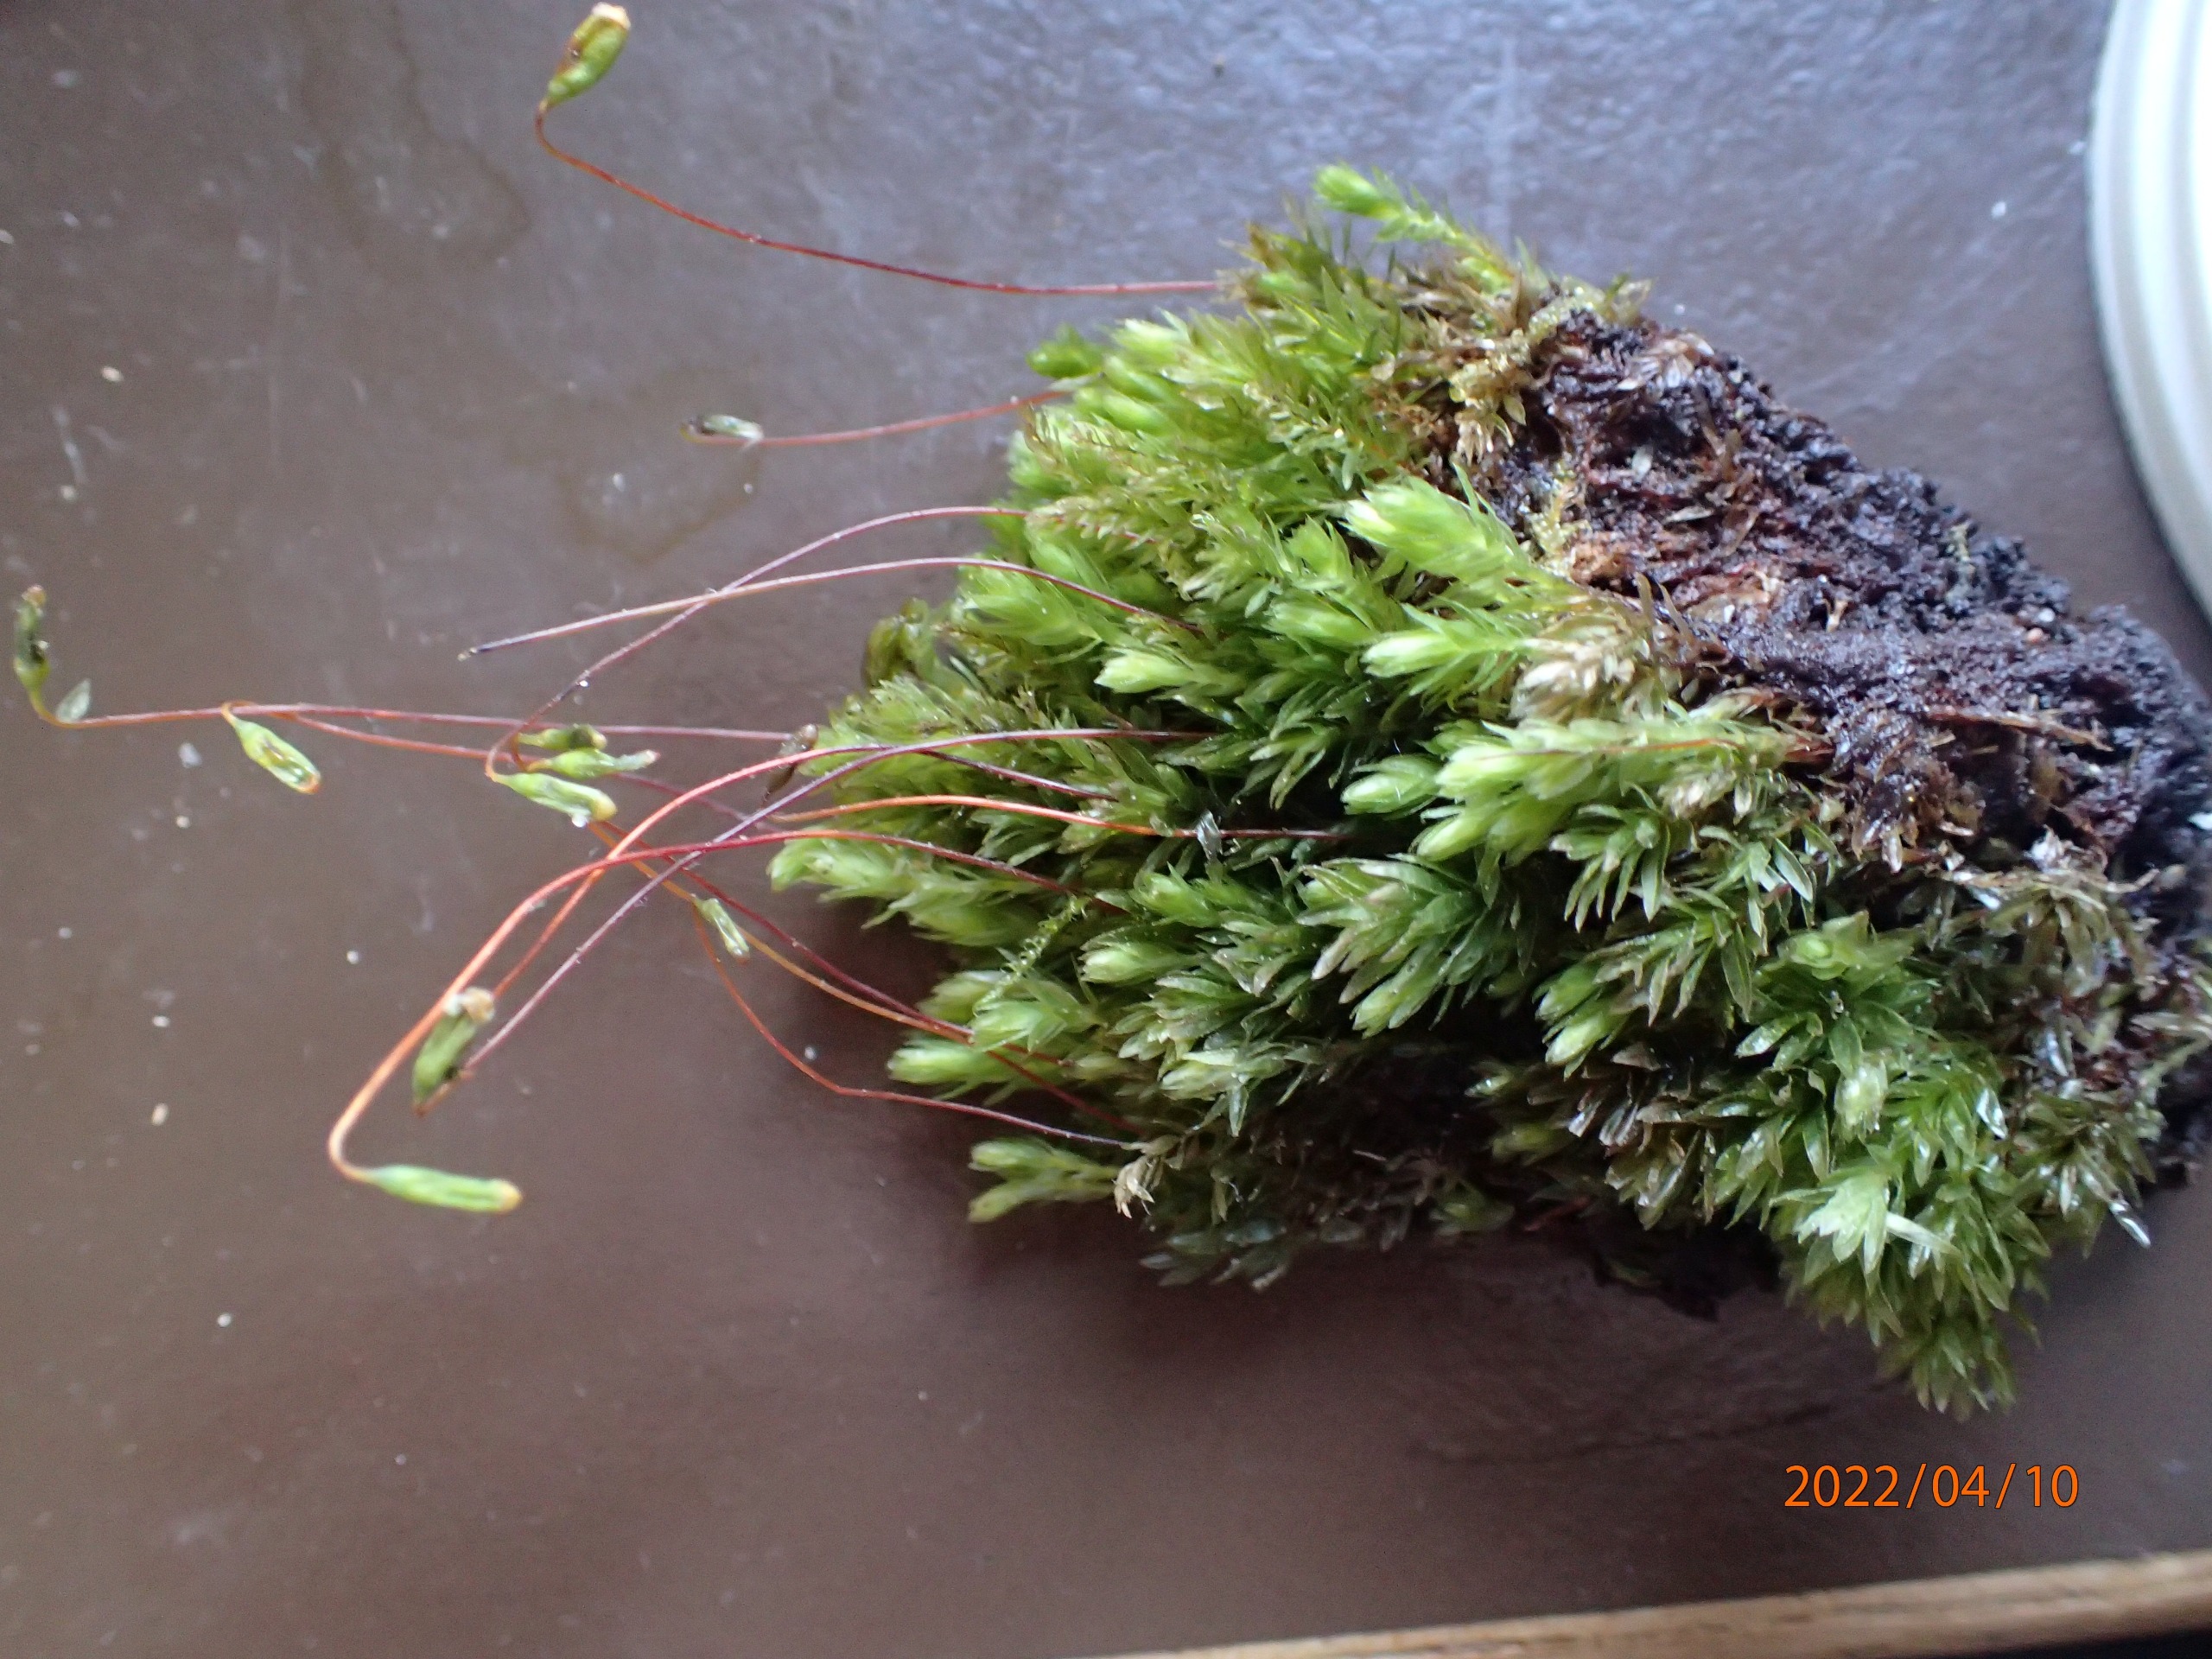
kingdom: Plantae
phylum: Bryophyta
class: Bryopsida
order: Bryales
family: Mniaceae
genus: Mnium
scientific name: Mnium hornum
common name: Brunfiltet stjernemos
